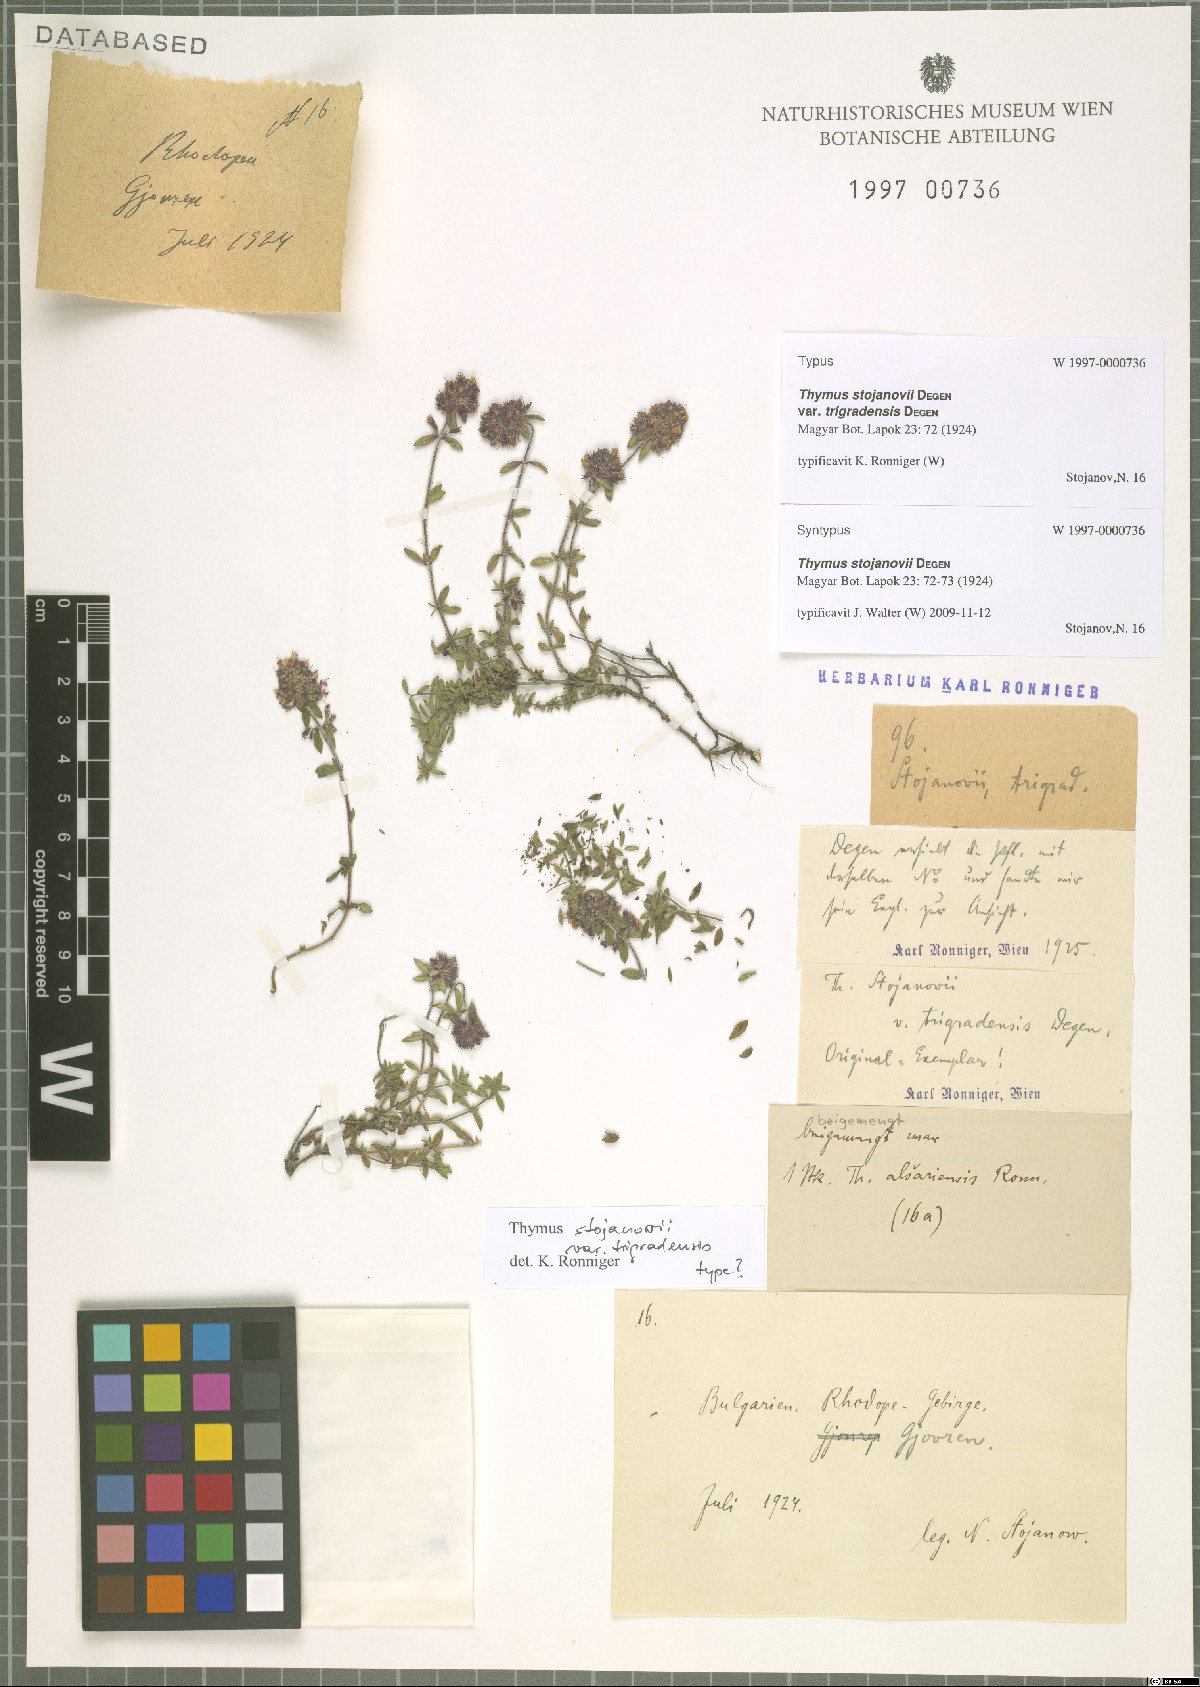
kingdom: Plantae
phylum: Tracheophyta
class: Magnoliopsida
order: Lamiales
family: Lamiaceae
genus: Thymus
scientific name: Thymus stojanovii
